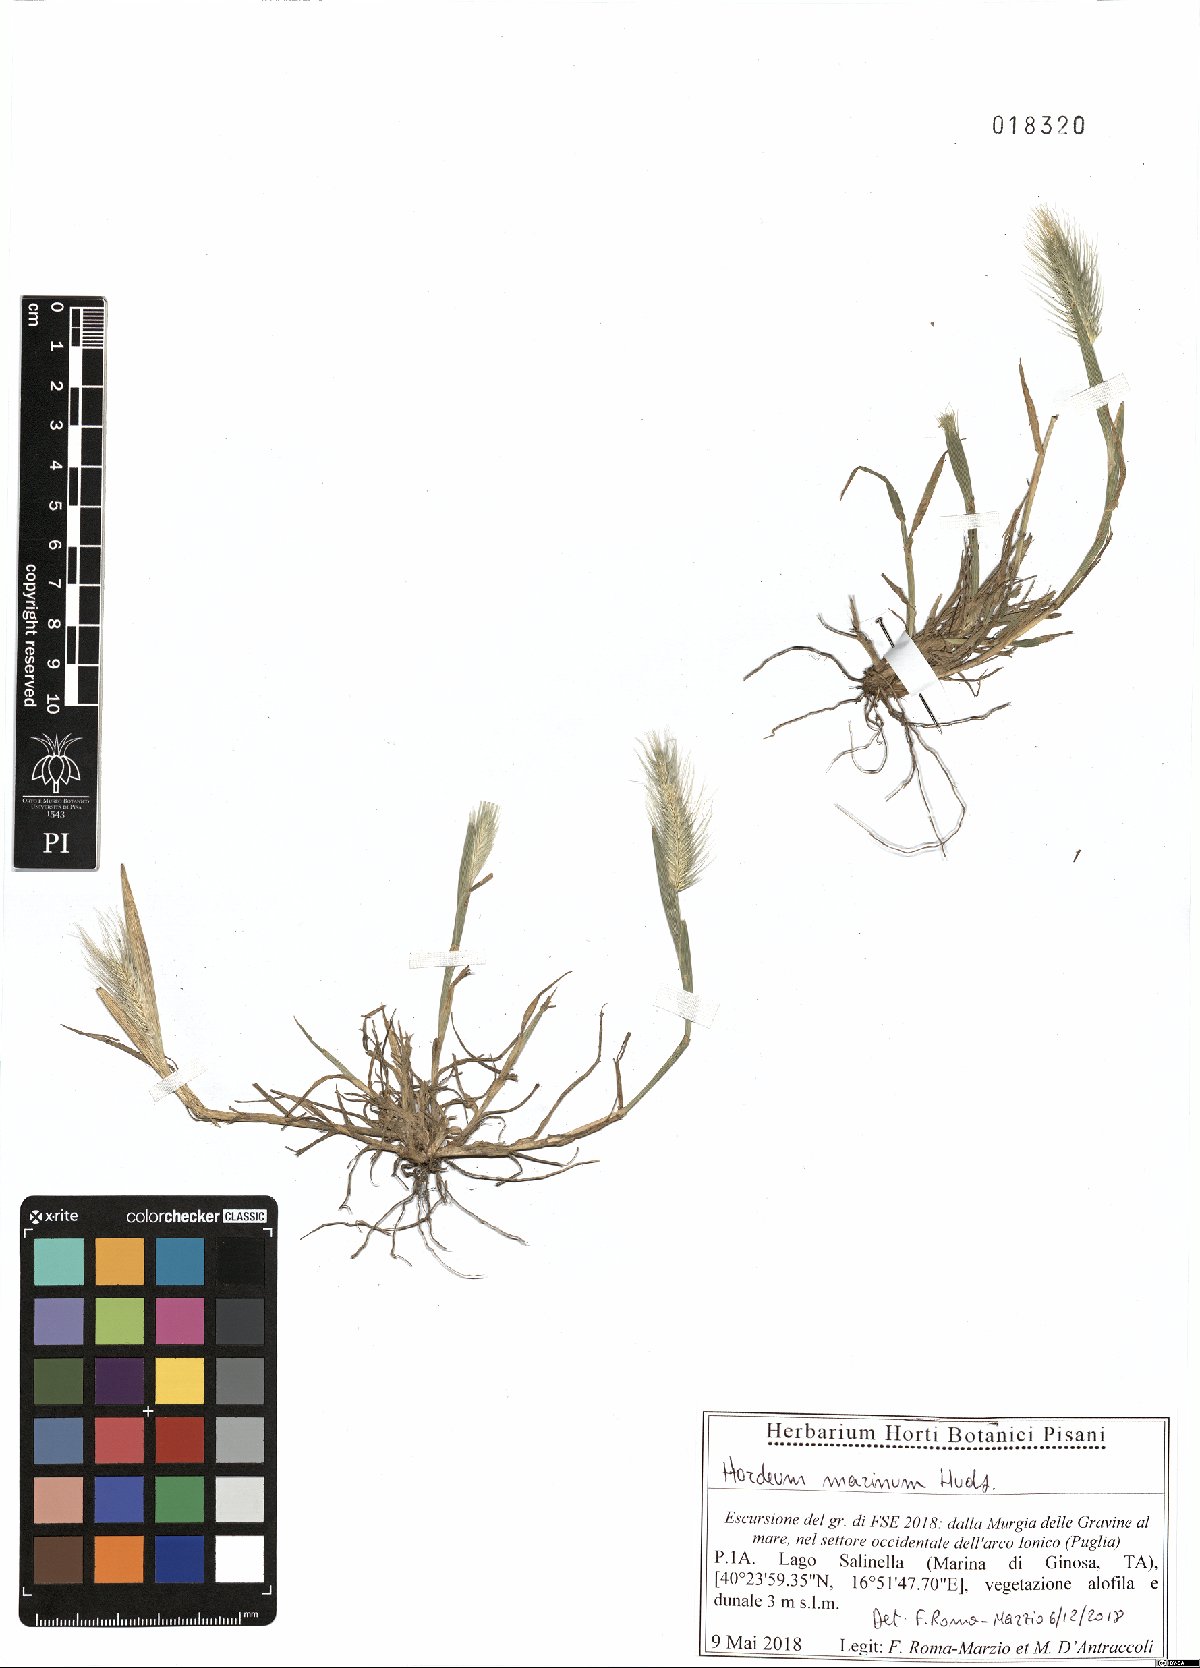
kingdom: Plantae
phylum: Tracheophyta
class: Liliopsida
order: Poales
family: Poaceae
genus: Hordeum
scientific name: Hordeum marinum
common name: Sea barley
